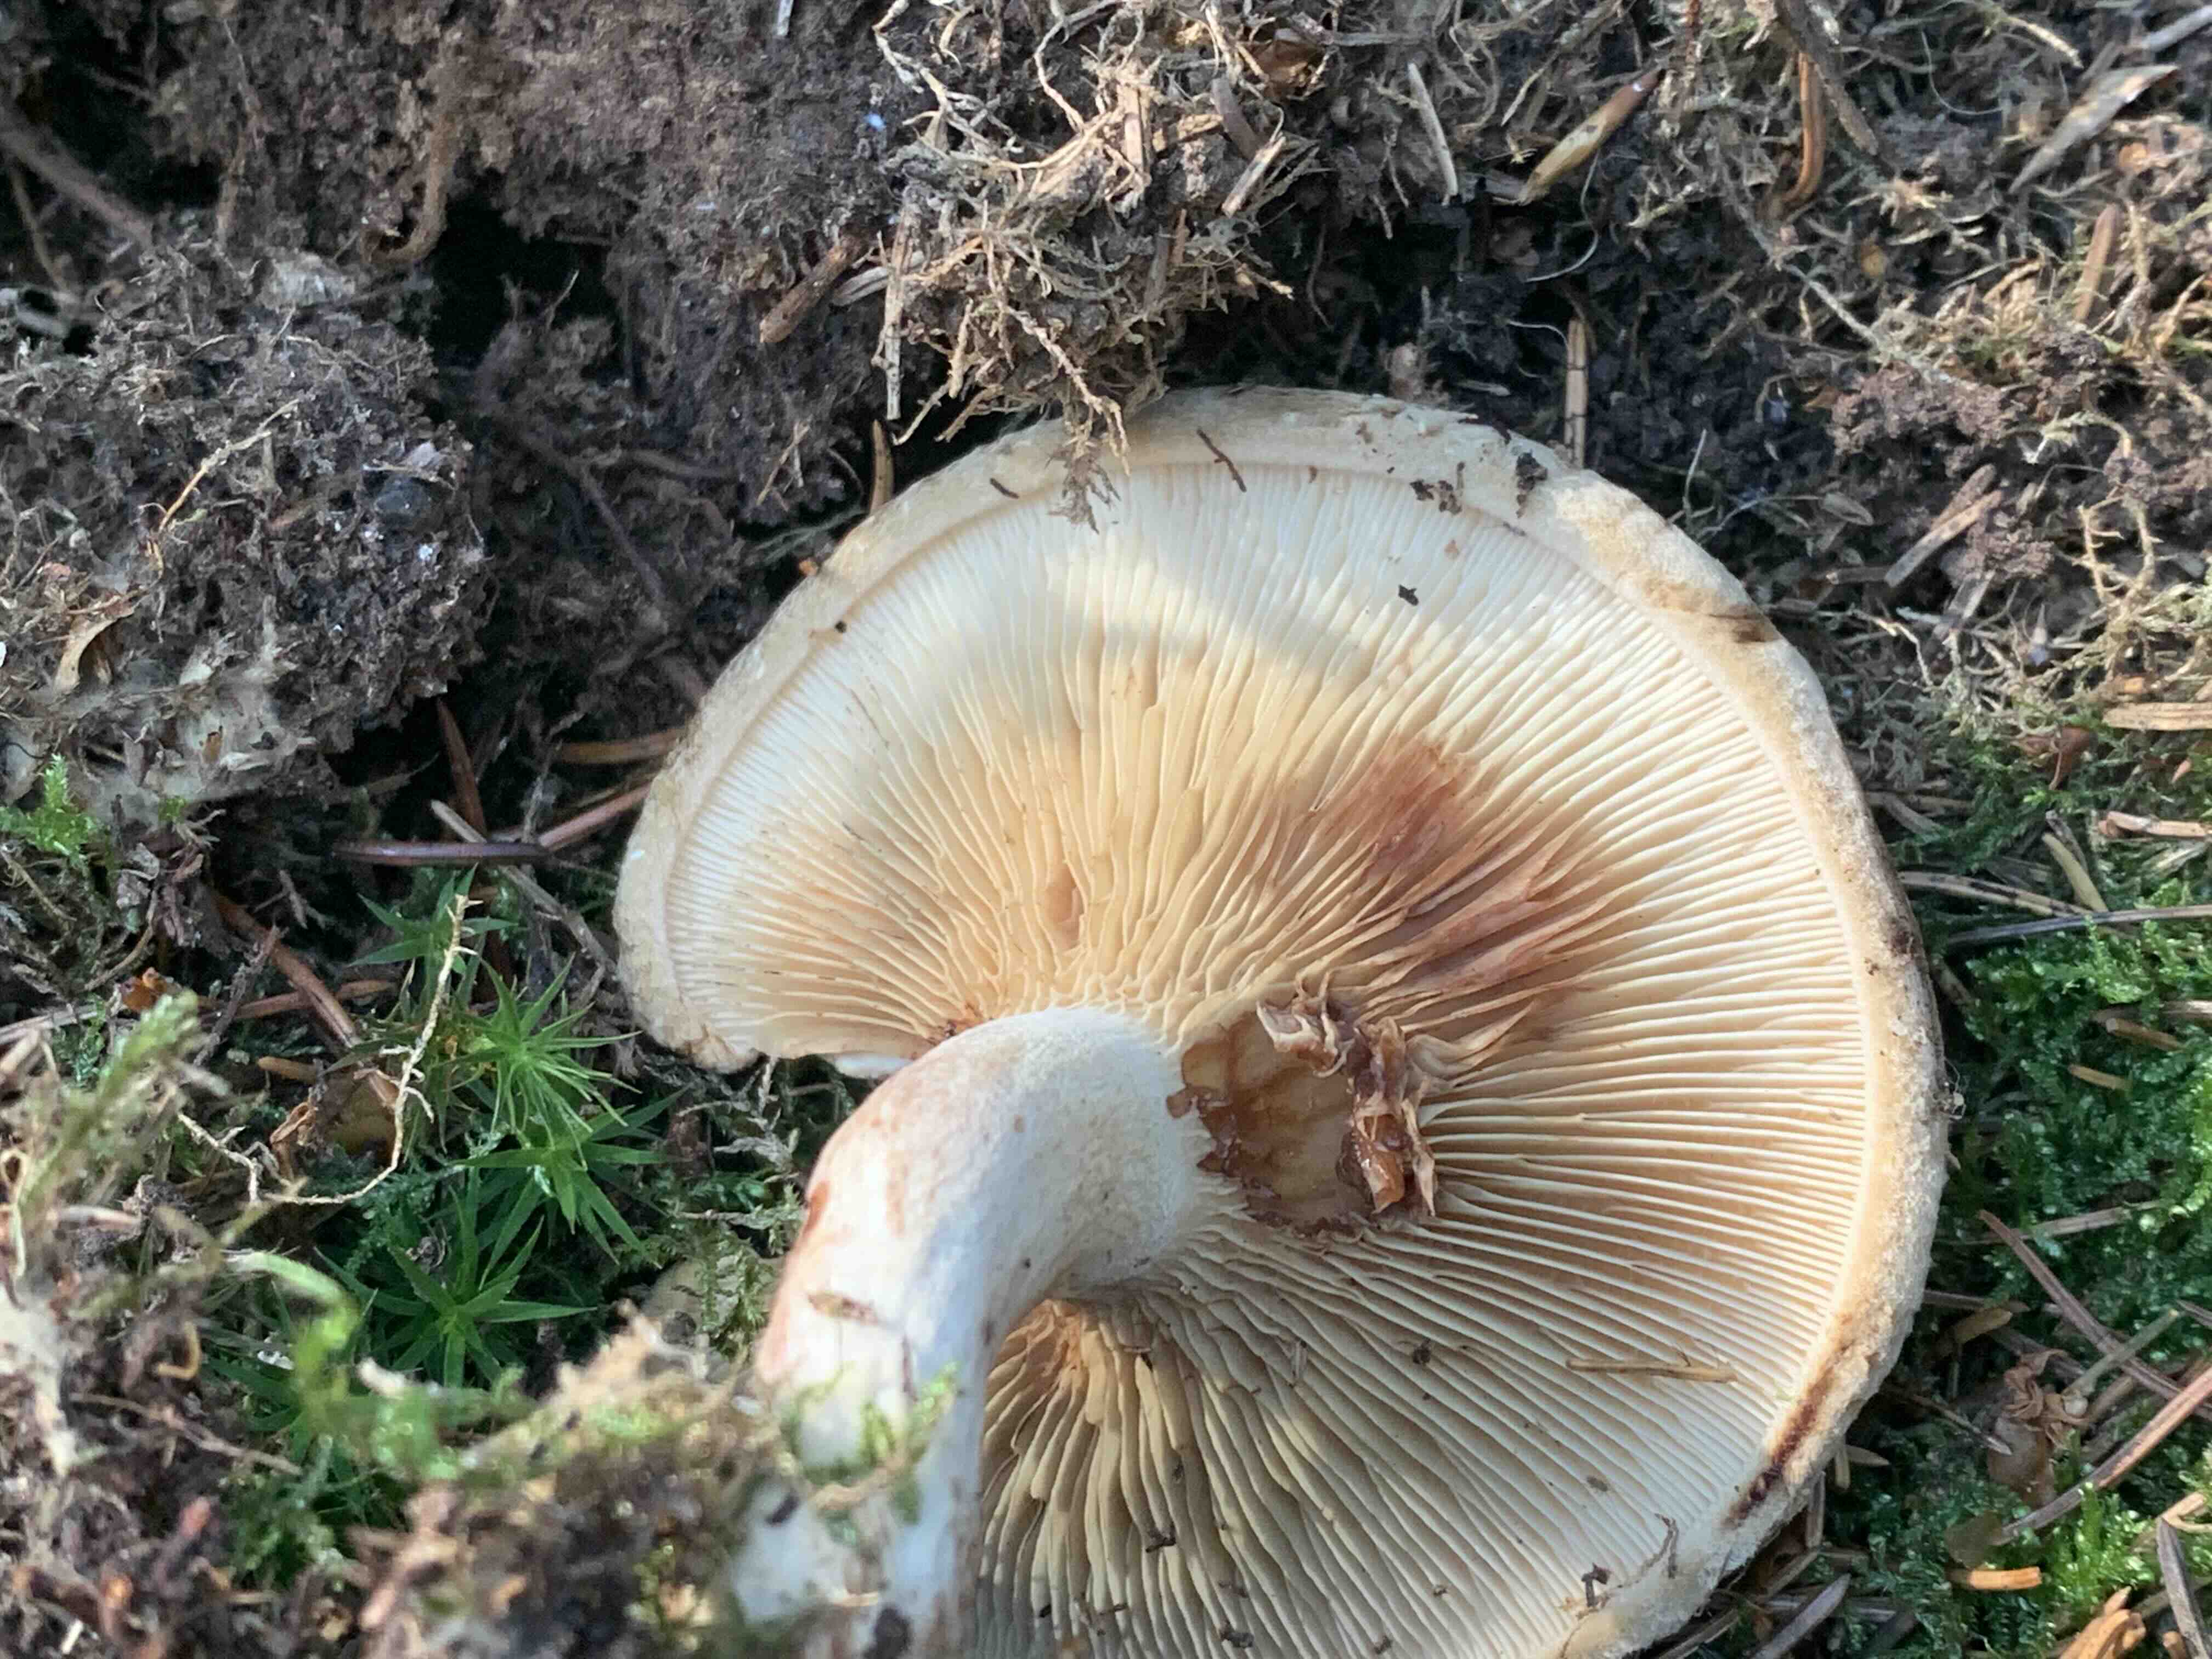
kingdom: Fungi
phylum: Basidiomycota
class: Agaricomycetes
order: Boletales
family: Paxillaceae
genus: Paxillus
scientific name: Paxillus involutus
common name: almindelig netbladhat
